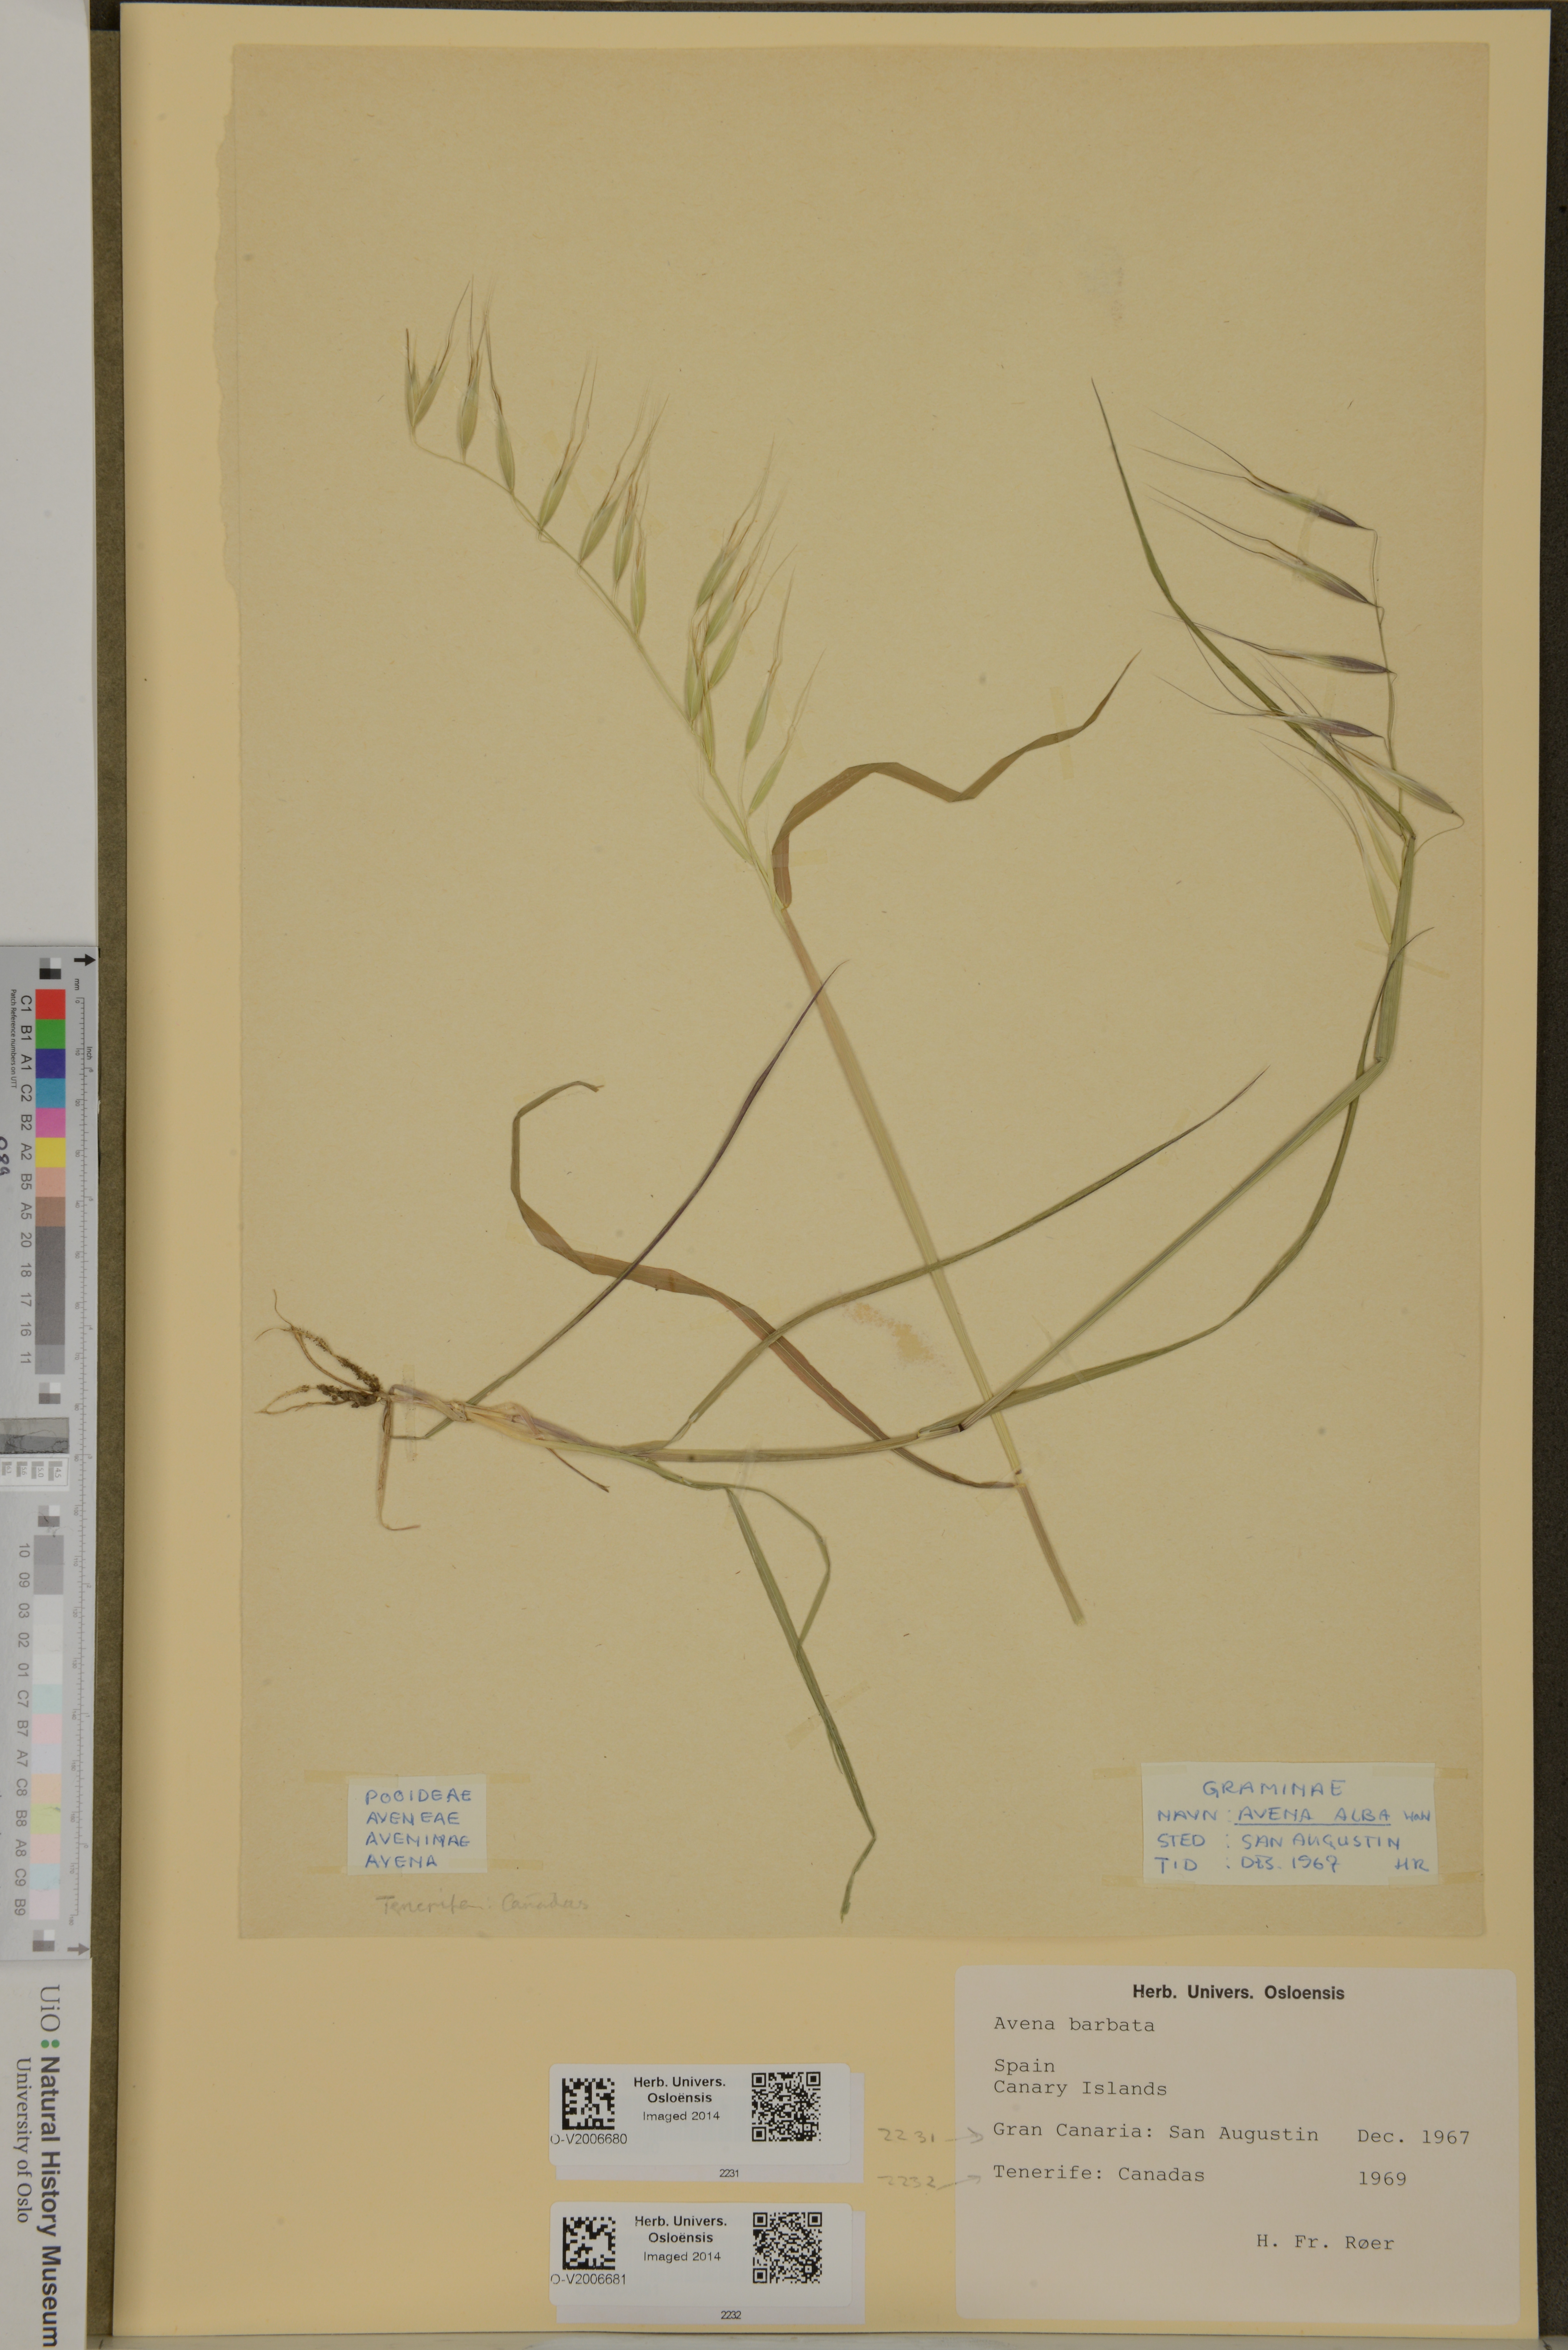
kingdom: Plantae
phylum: Tracheophyta
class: Liliopsida
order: Poales
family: Poaceae
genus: Avena
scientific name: Avena barbata
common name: Slender oat
